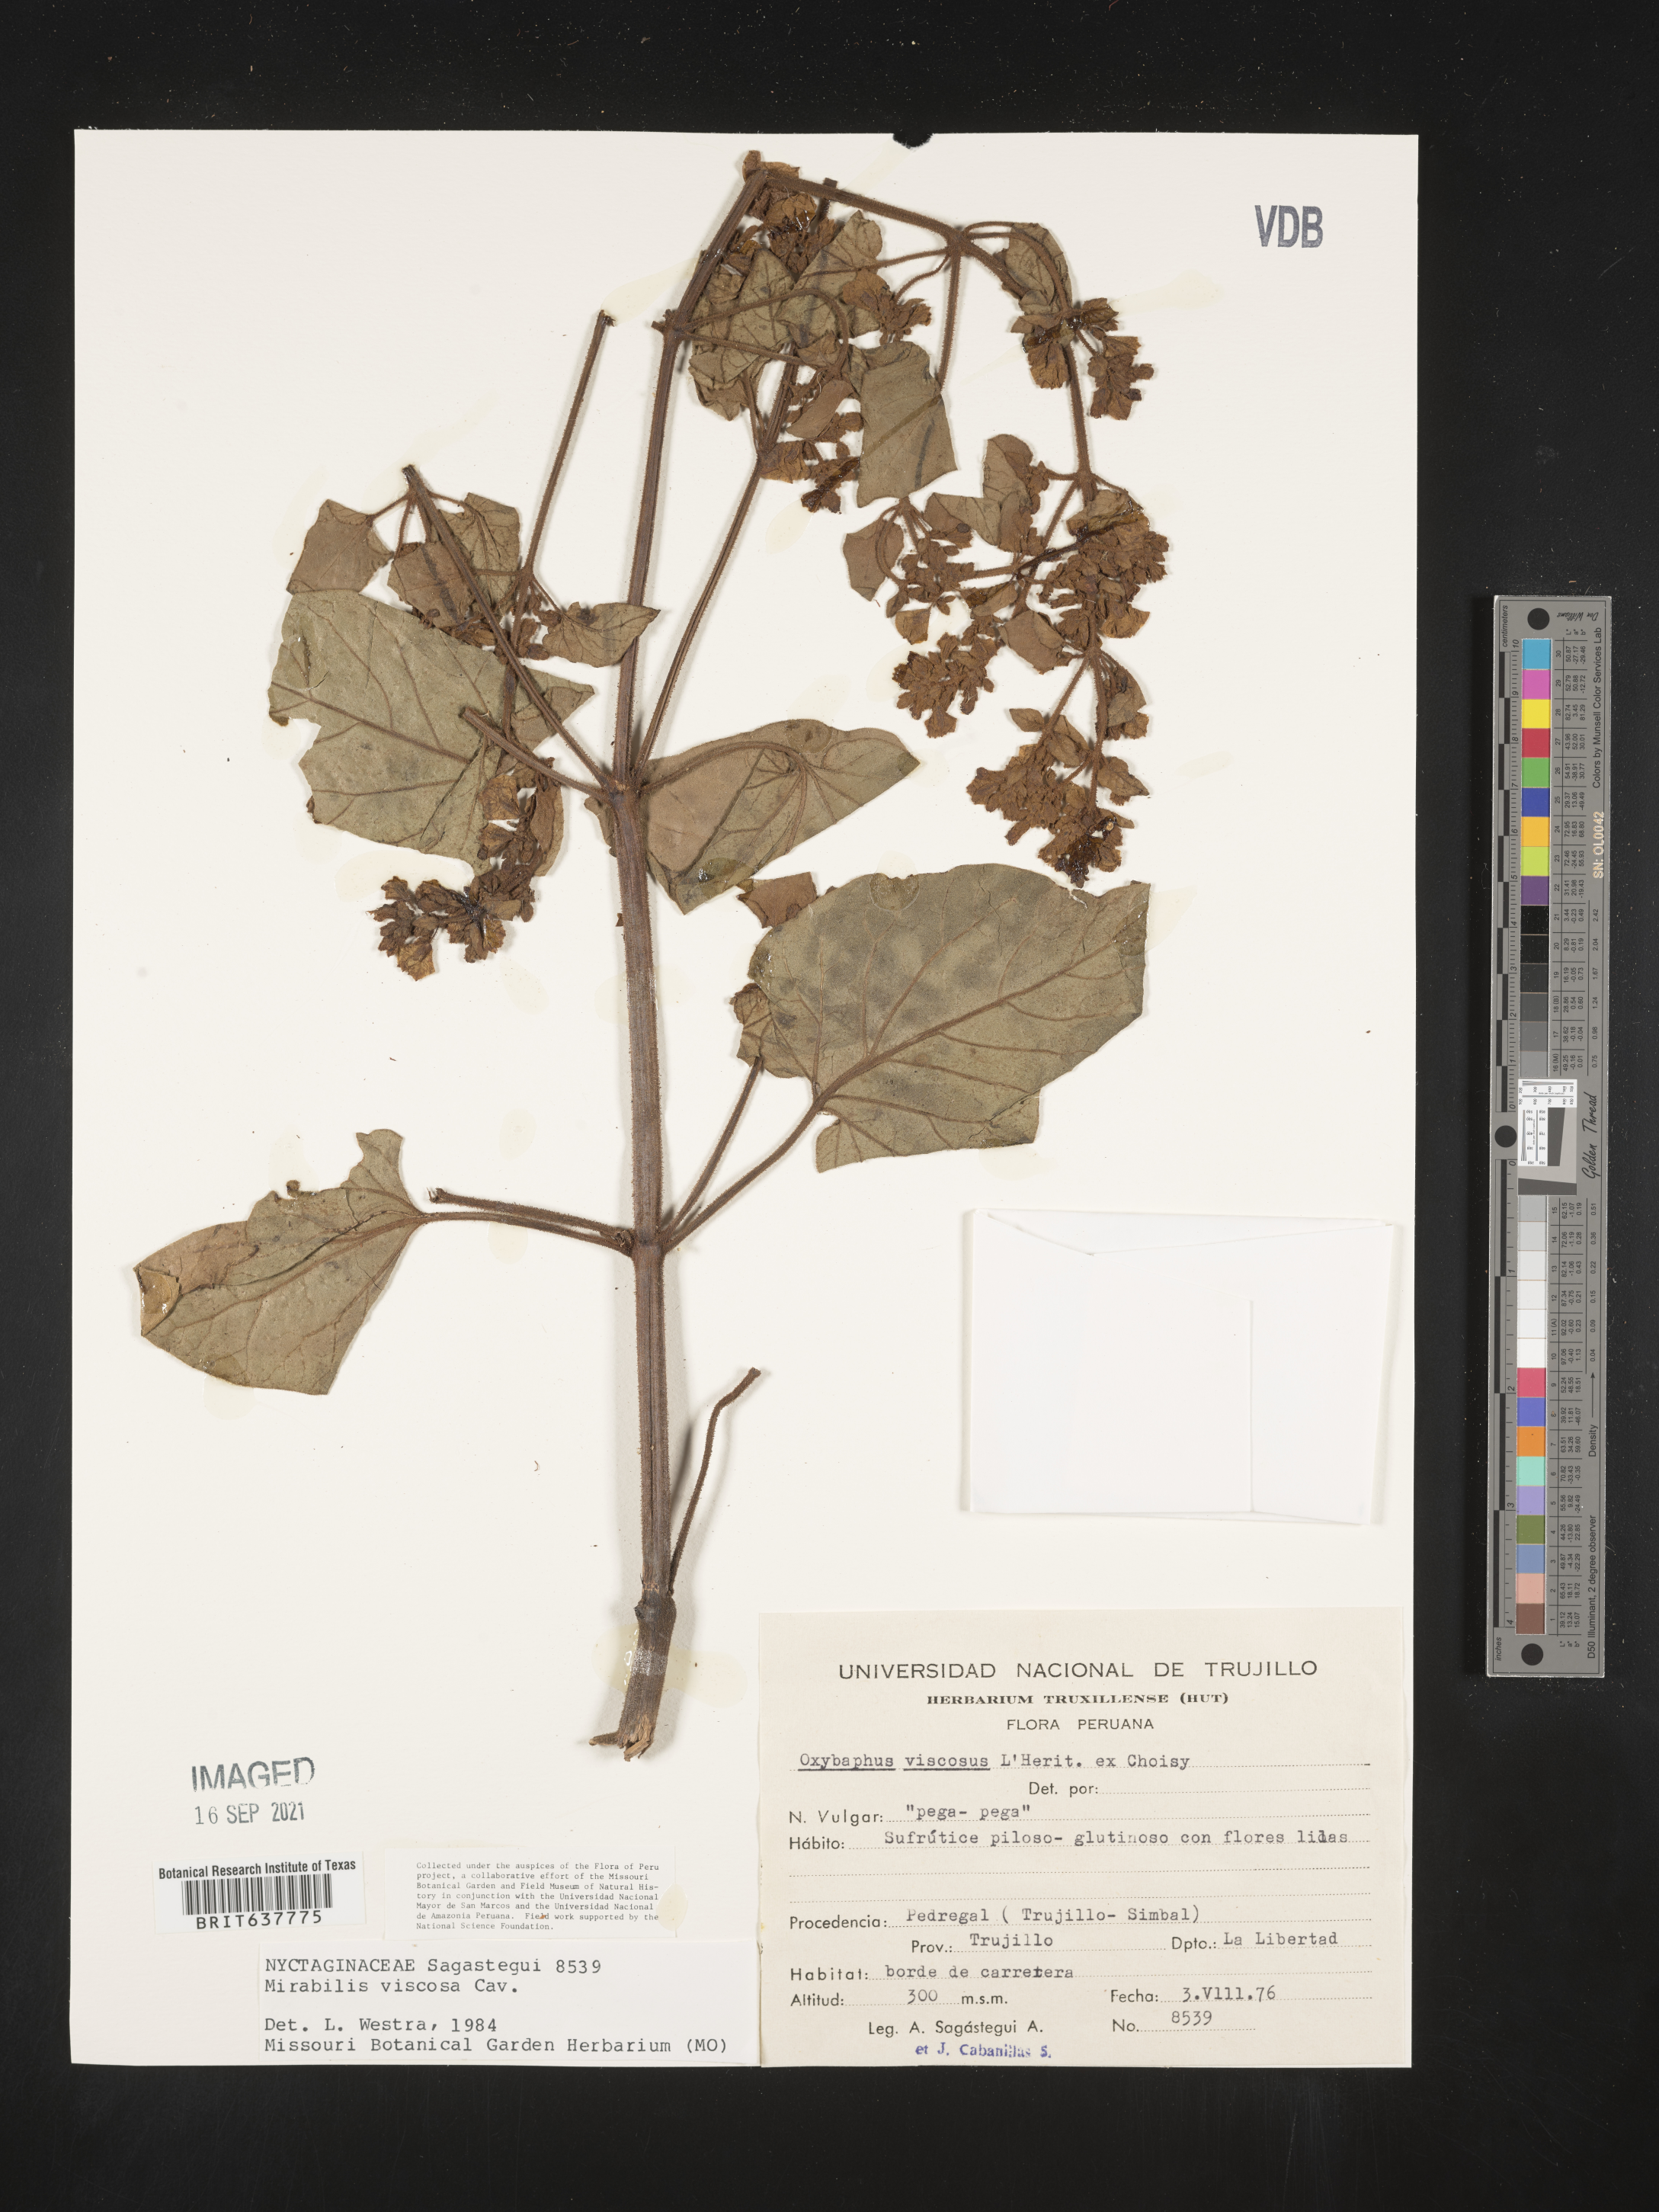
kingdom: Plantae
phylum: Tracheophyta
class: Magnoliopsida
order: Caryophyllales
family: Nyctaginaceae
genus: Mirabilis
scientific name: Mirabilis
